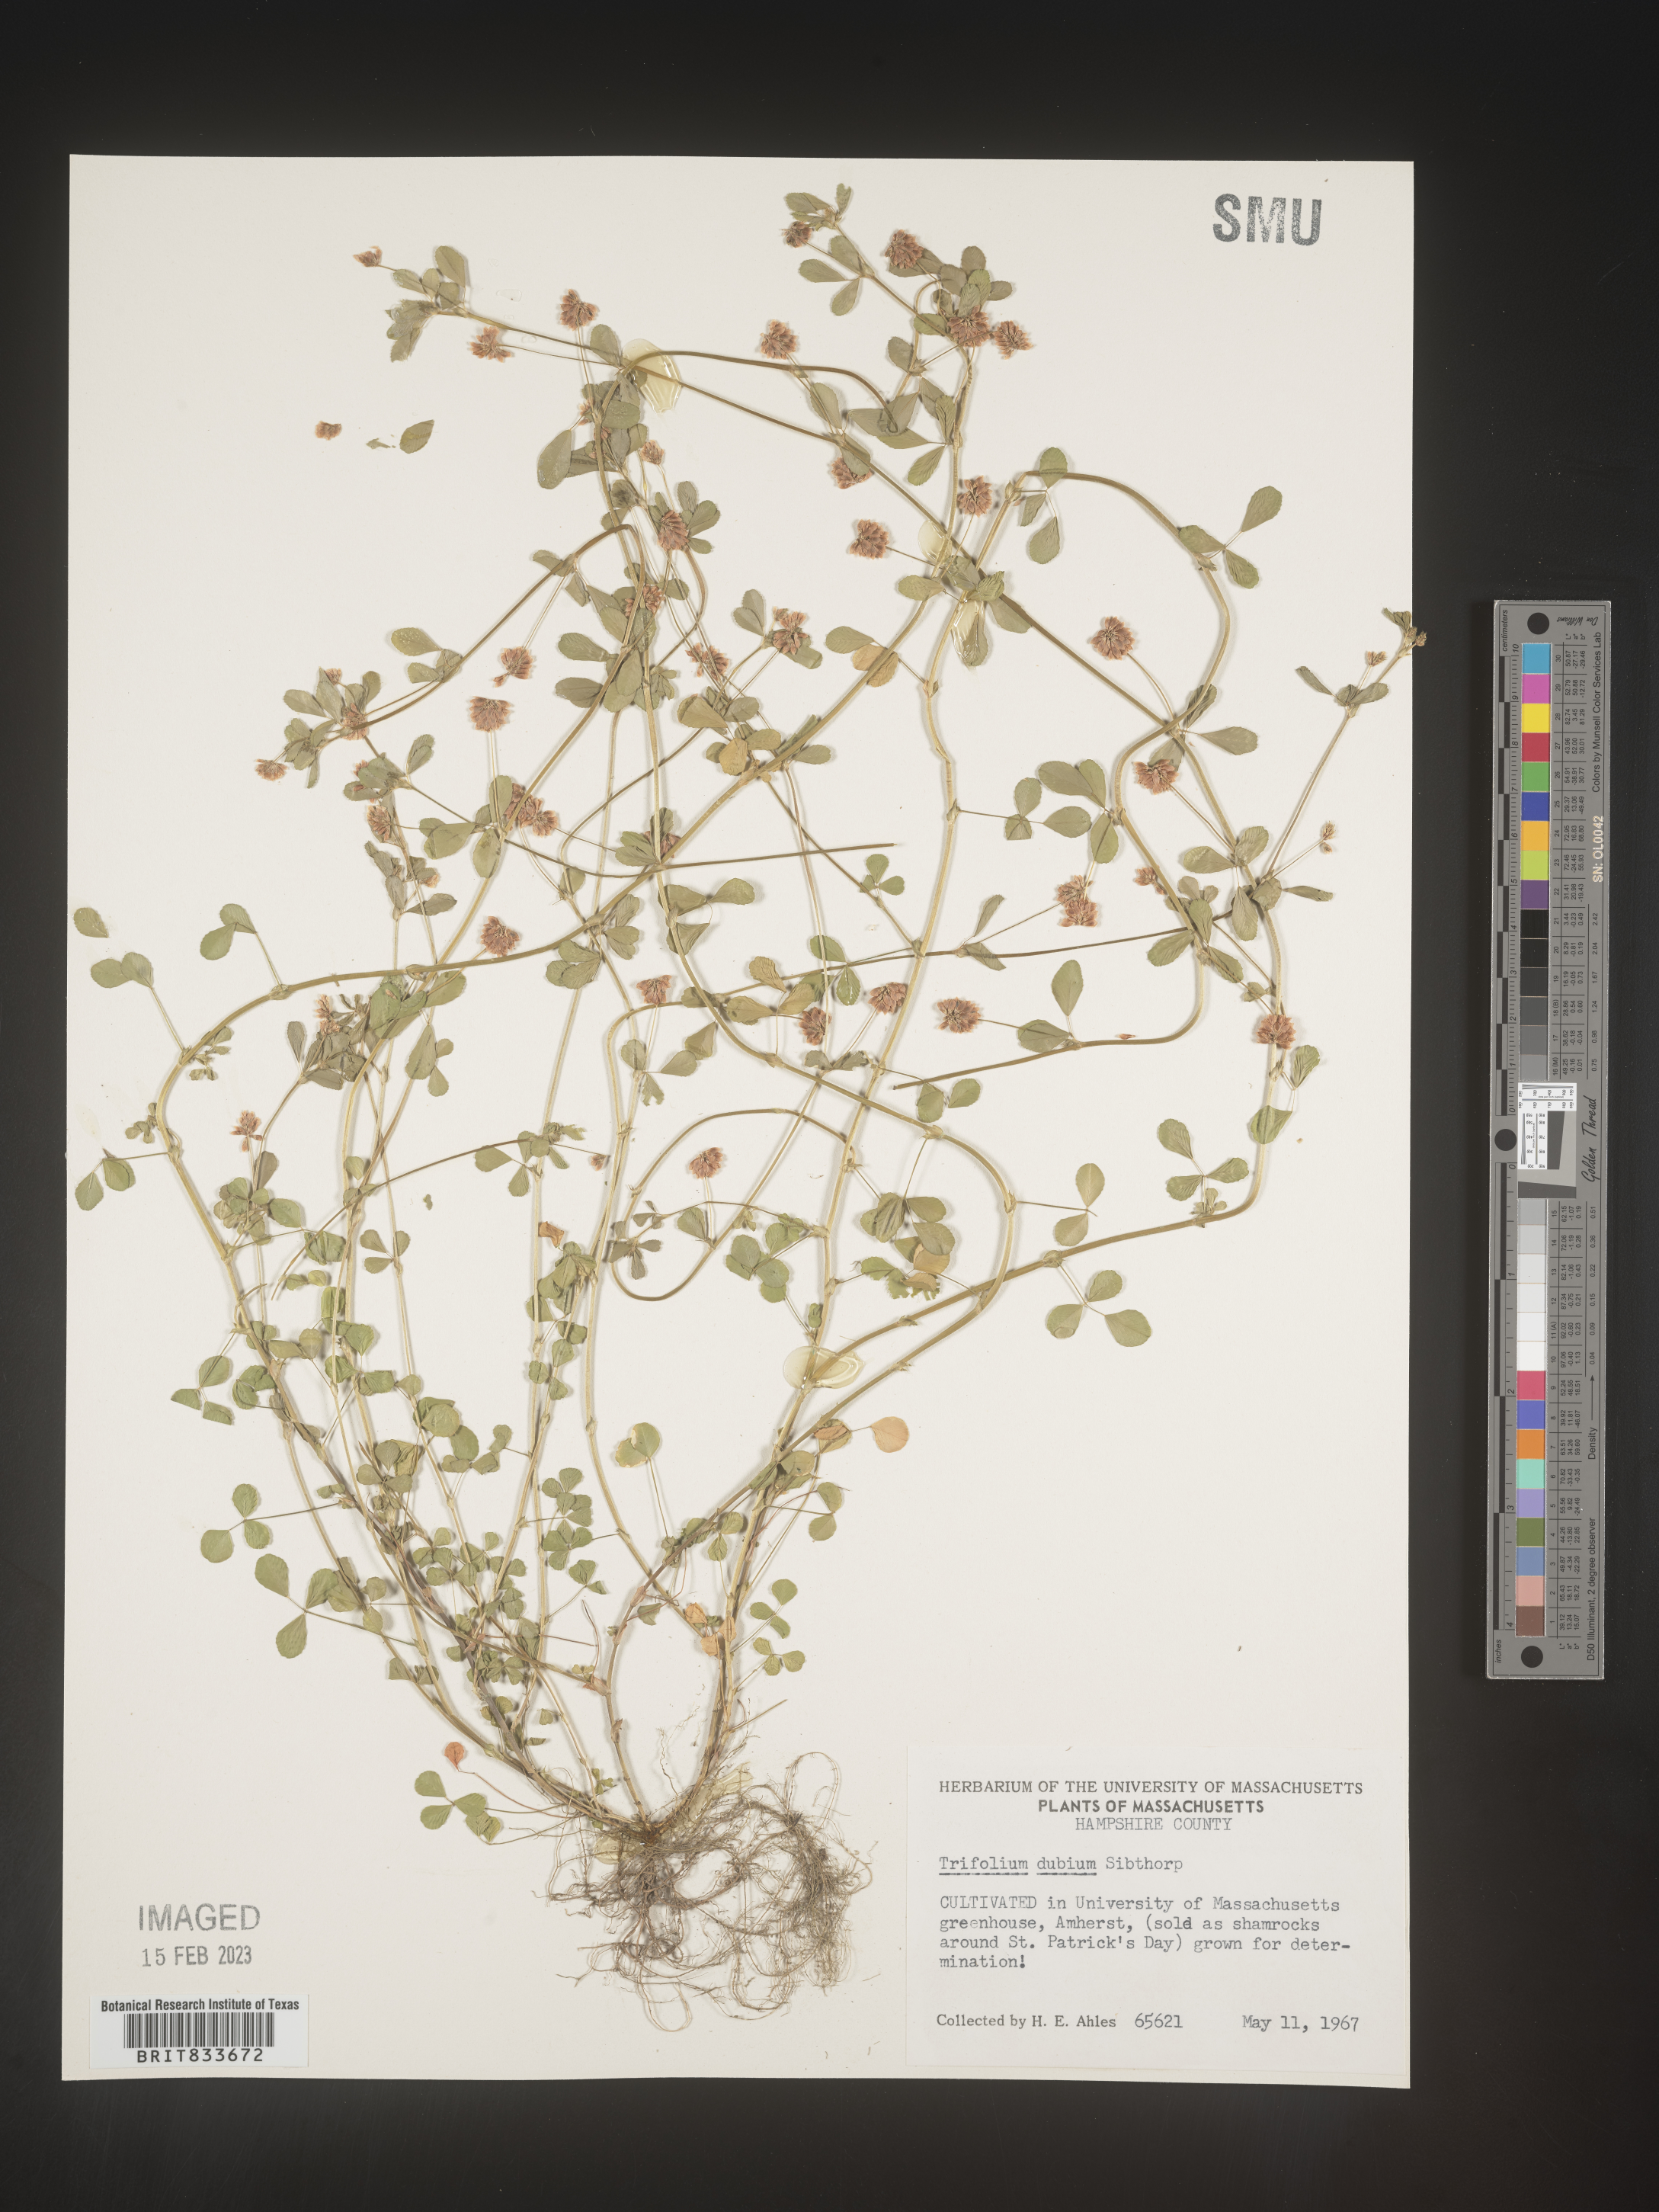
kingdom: Plantae
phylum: Tracheophyta
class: Magnoliopsida
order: Fabales
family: Fabaceae
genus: Trifolium
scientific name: Trifolium dubium
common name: Suckling clover
